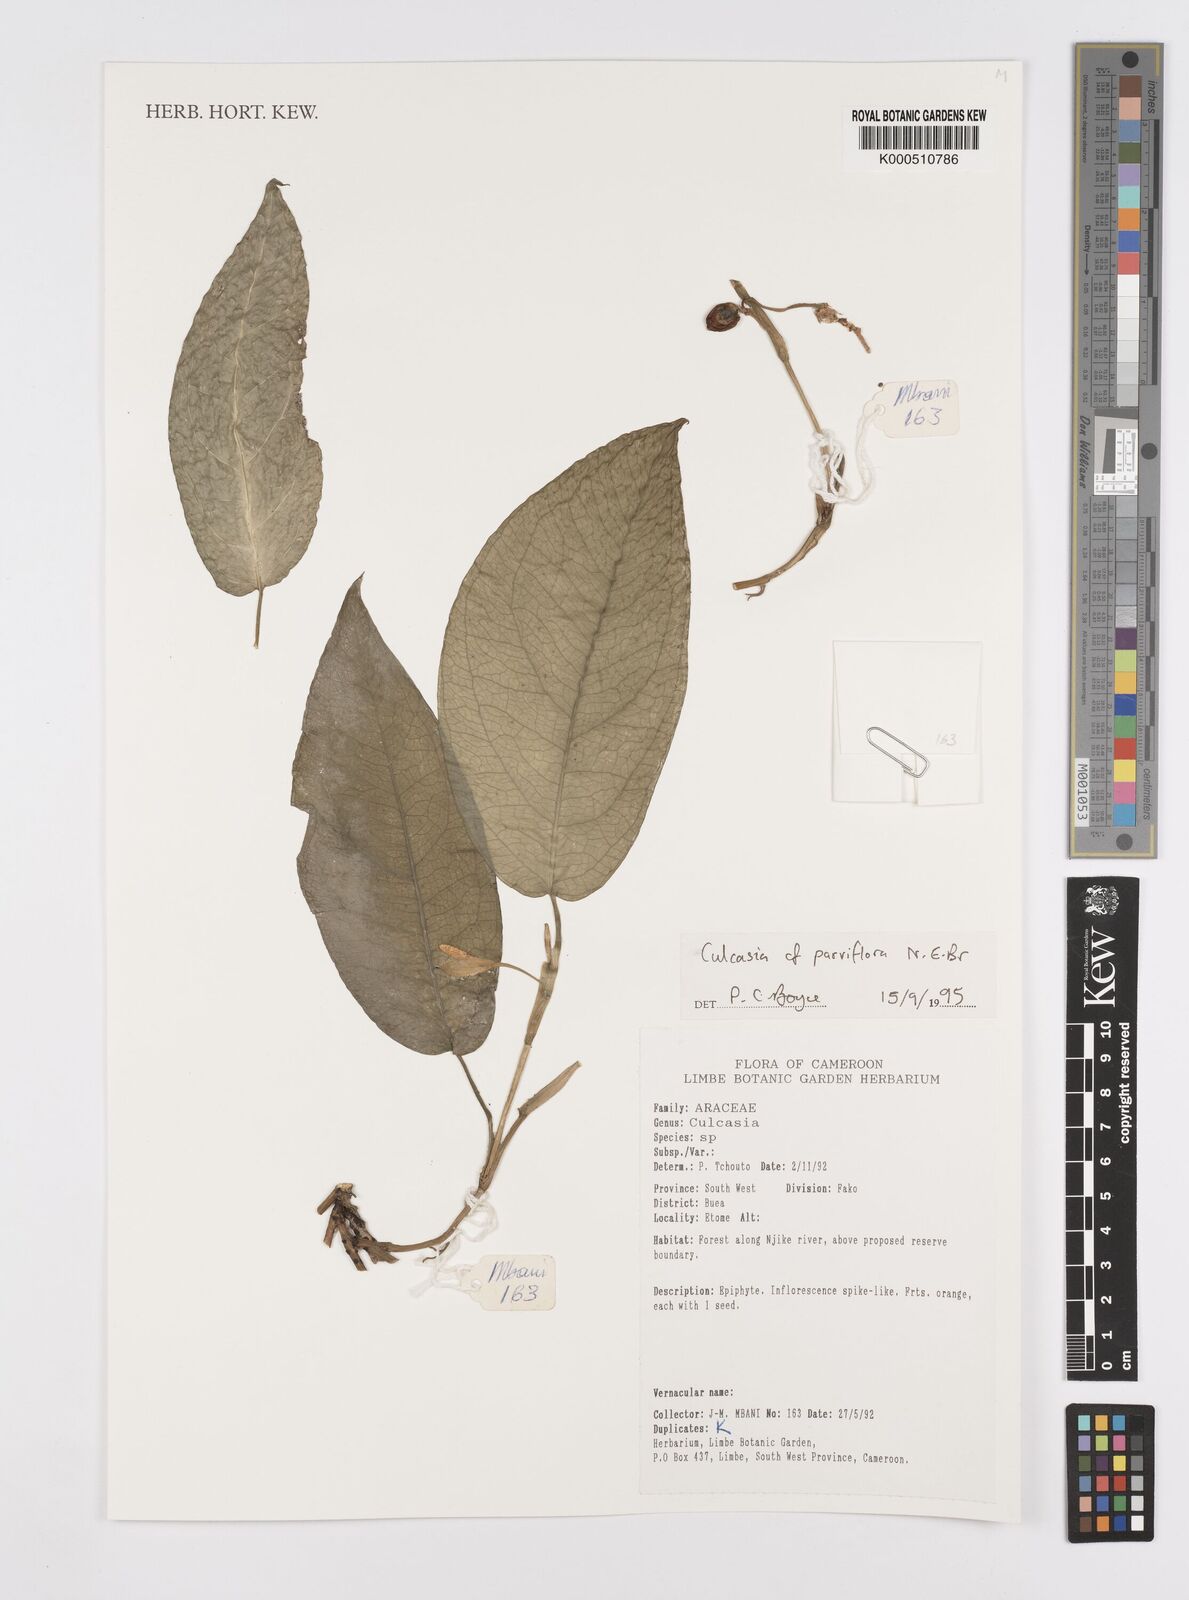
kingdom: Plantae
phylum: Tracheophyta
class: Liliopsida
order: Alismatales
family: Araceae
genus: Culcasia
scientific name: Culcasia parviflora
